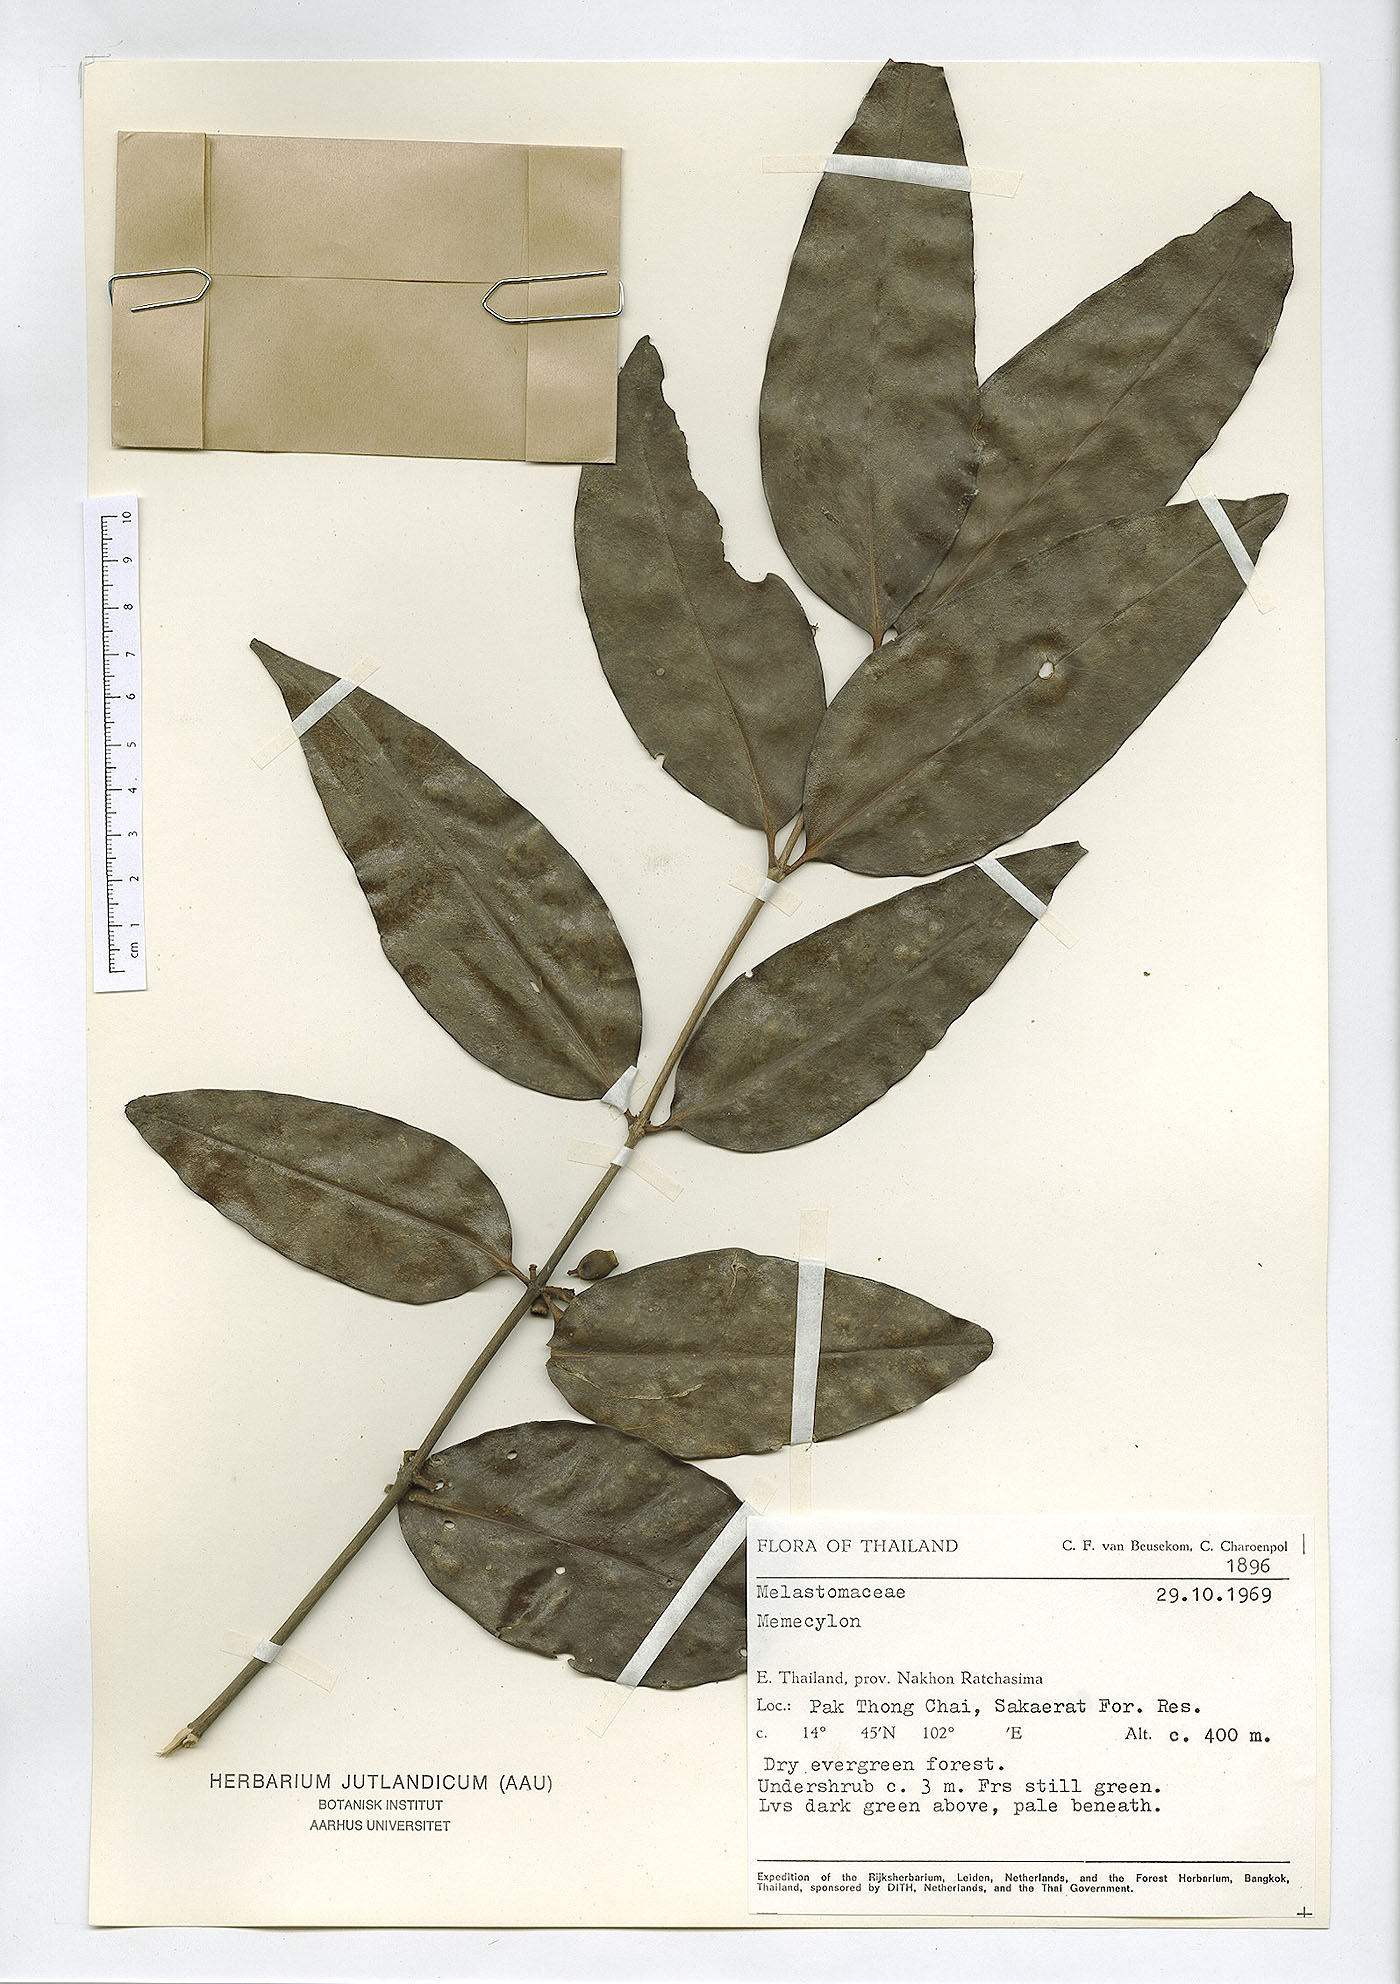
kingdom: Plantae
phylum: Tracheophyta
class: Magnoliopsida
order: Myrtales
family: Melastomataceae
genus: Memecylon
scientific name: Memecylon caeruleum
